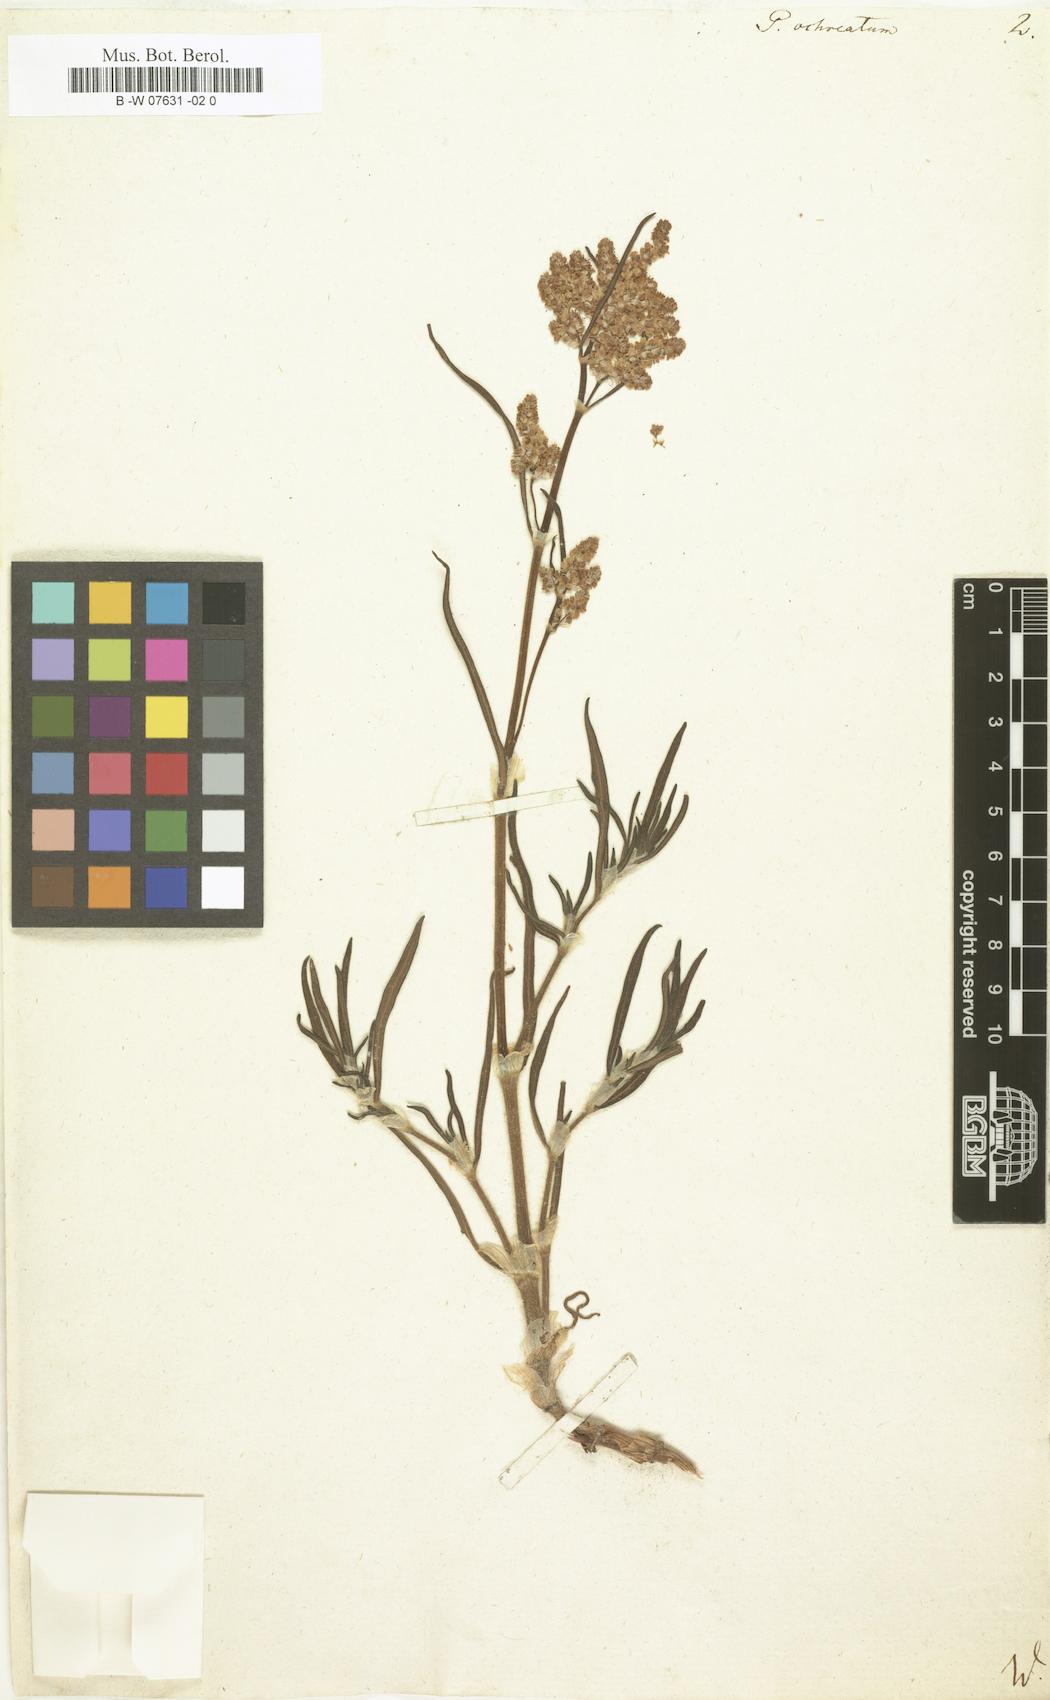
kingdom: Plantae
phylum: Tracheophyta
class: Magnoliopsida
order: Caryophyllales
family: Polygonaceae
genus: Koenigia
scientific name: Koenigia ocreata
